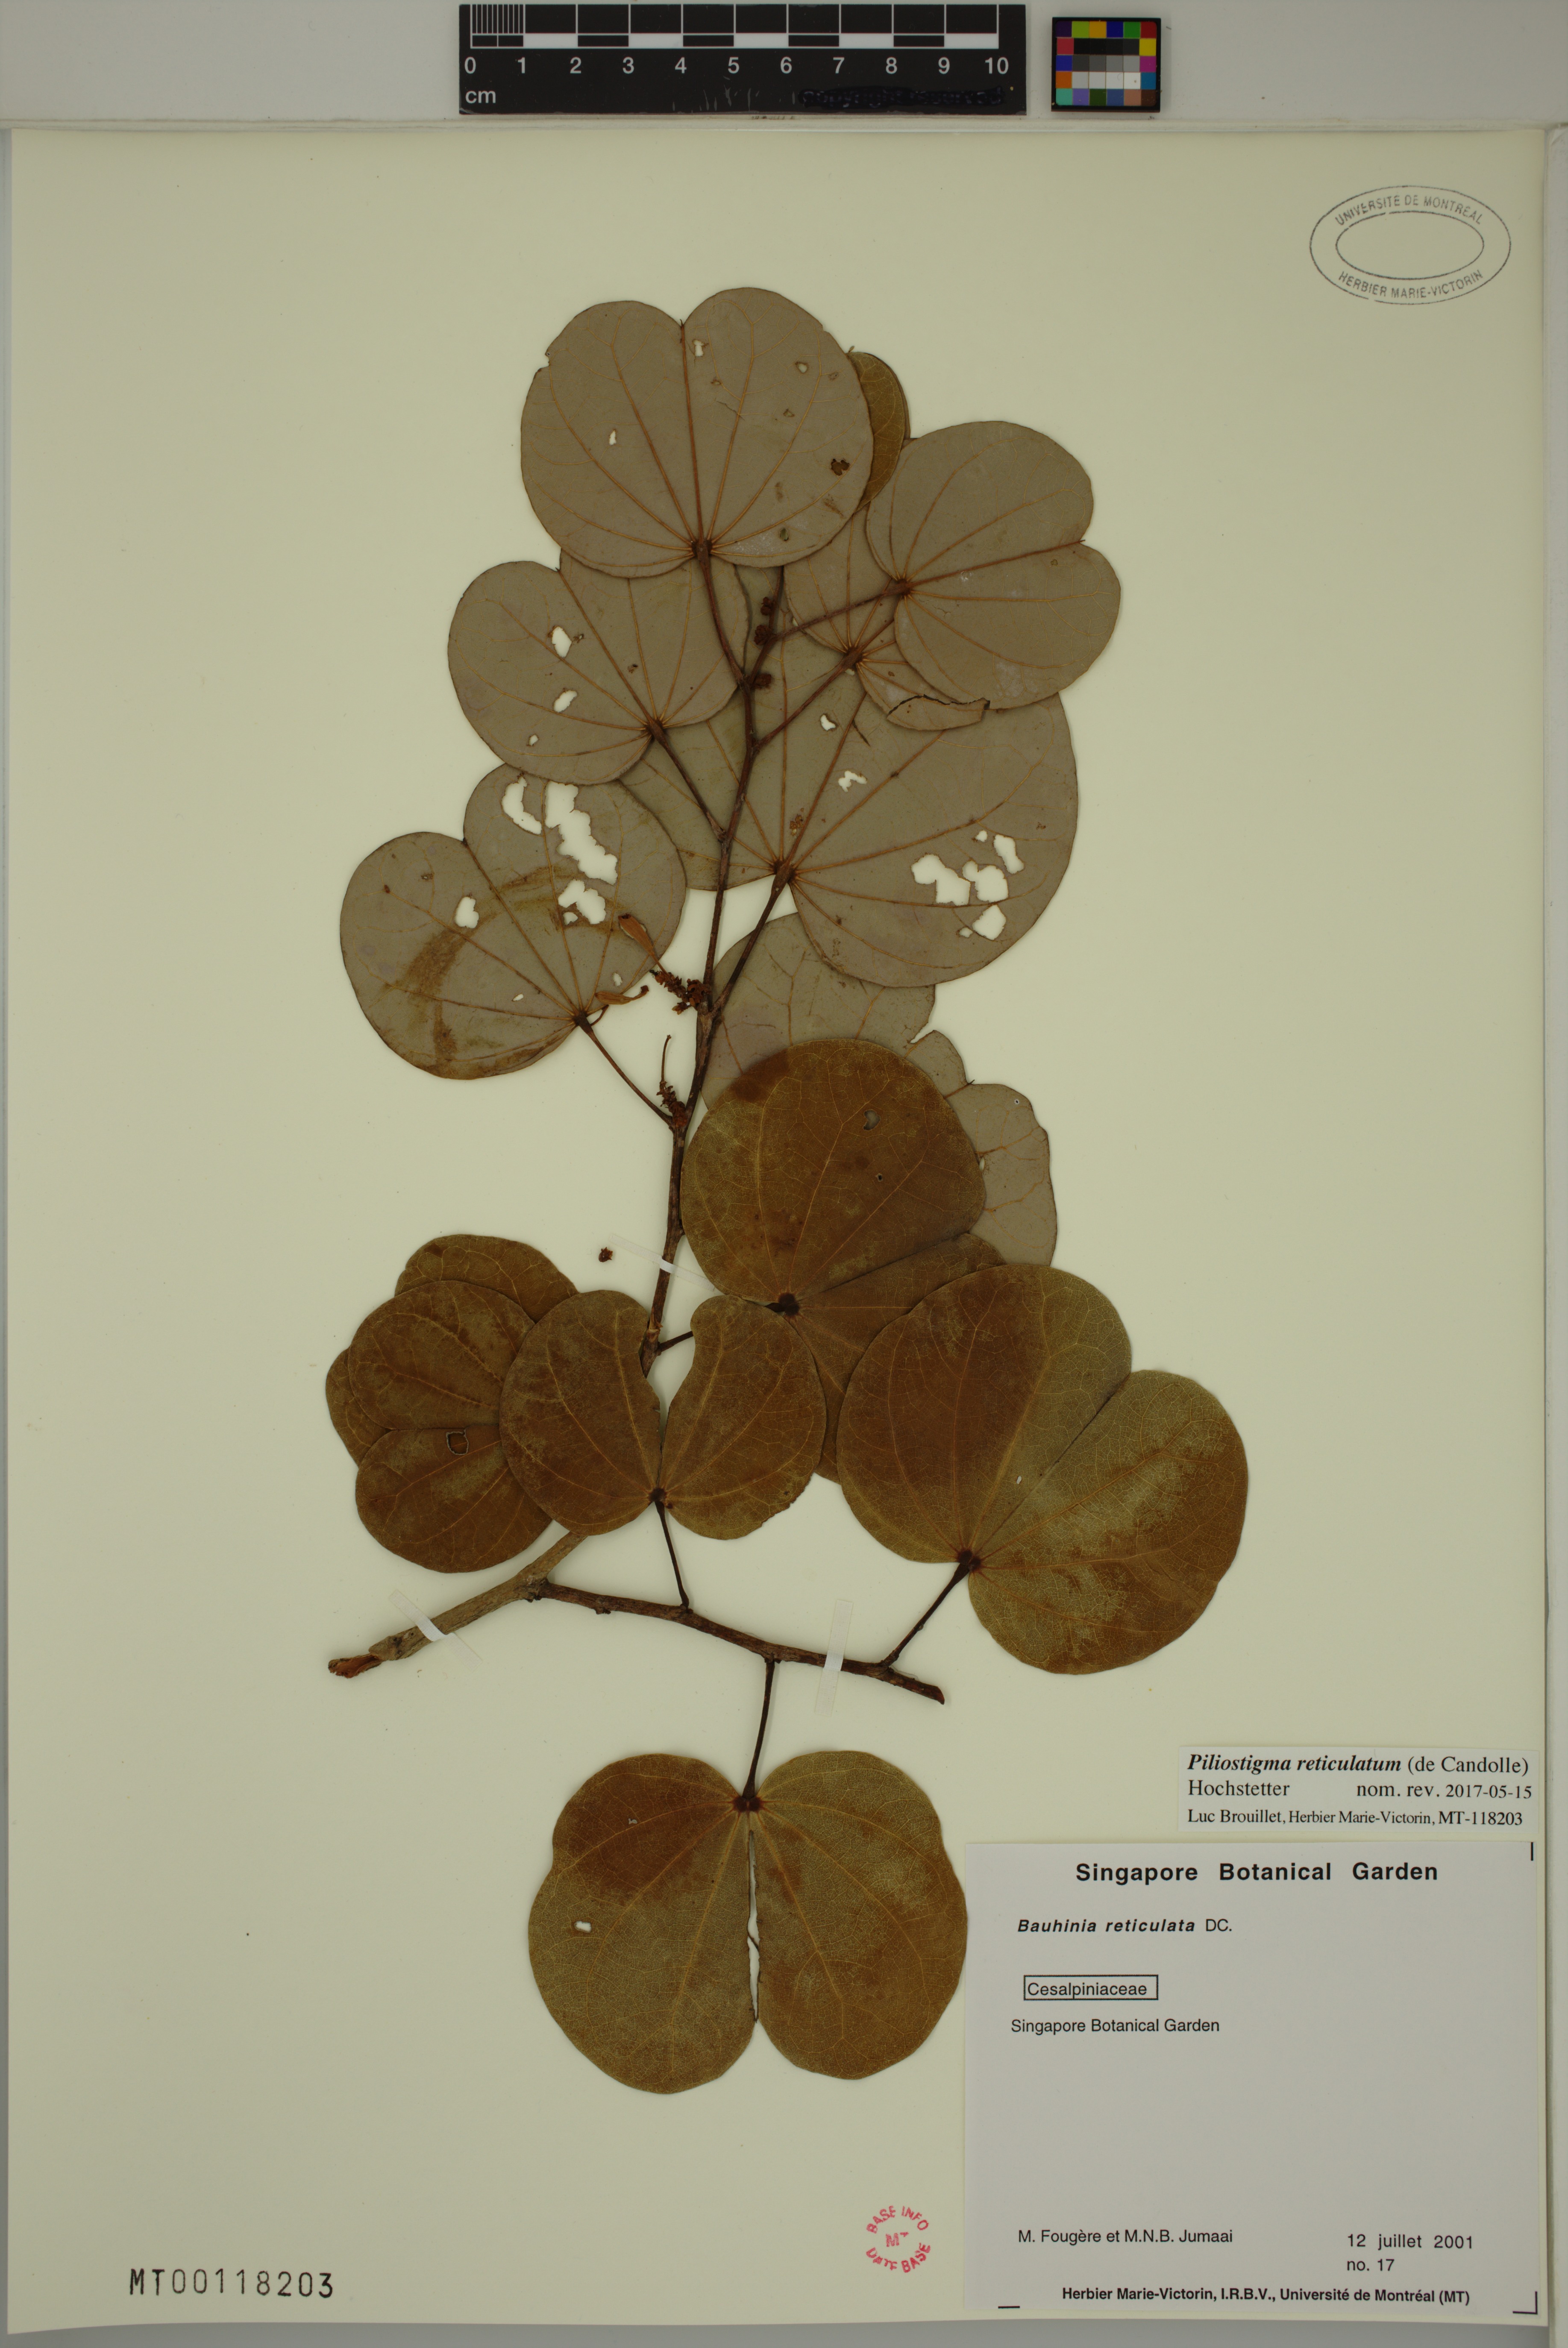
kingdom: Plantae
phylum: Tracheophyta
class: Magnoliopsida
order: Fabales
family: Fabaceae
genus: Piliostigma
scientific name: Piliostigma reticulatum
